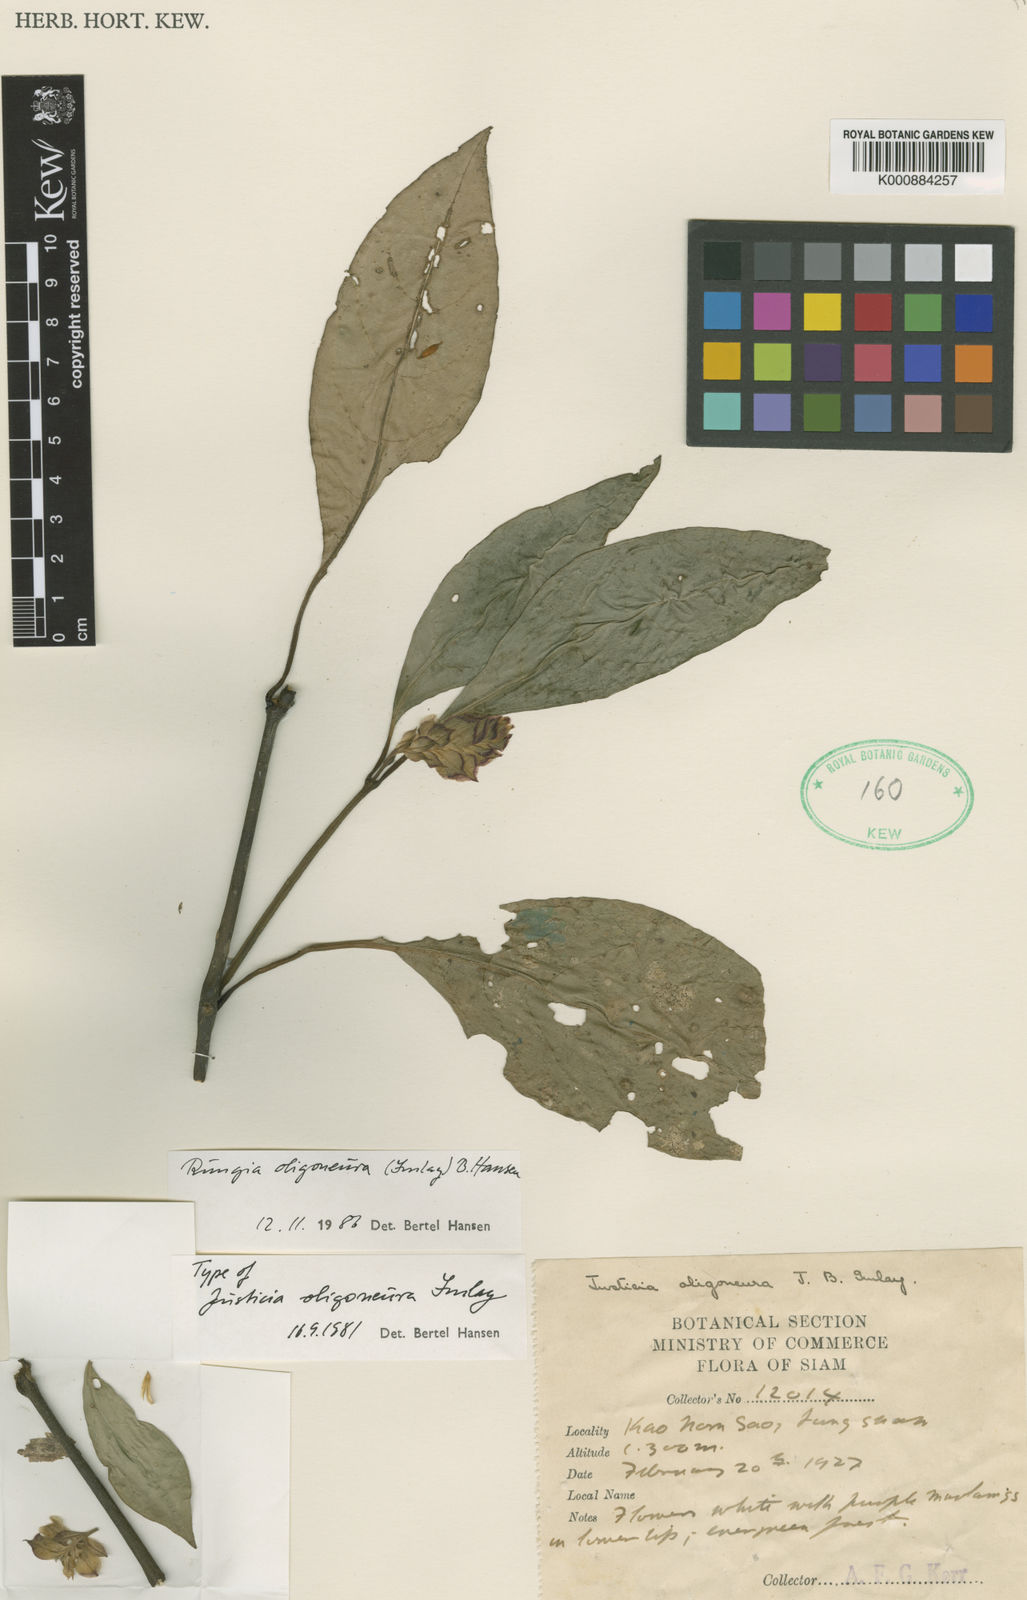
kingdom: Plantae
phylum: Tracheophyta
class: Magnoliopsida
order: Lamiales
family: Acanthaceae
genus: Rungia
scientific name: Rungia oligoneura
